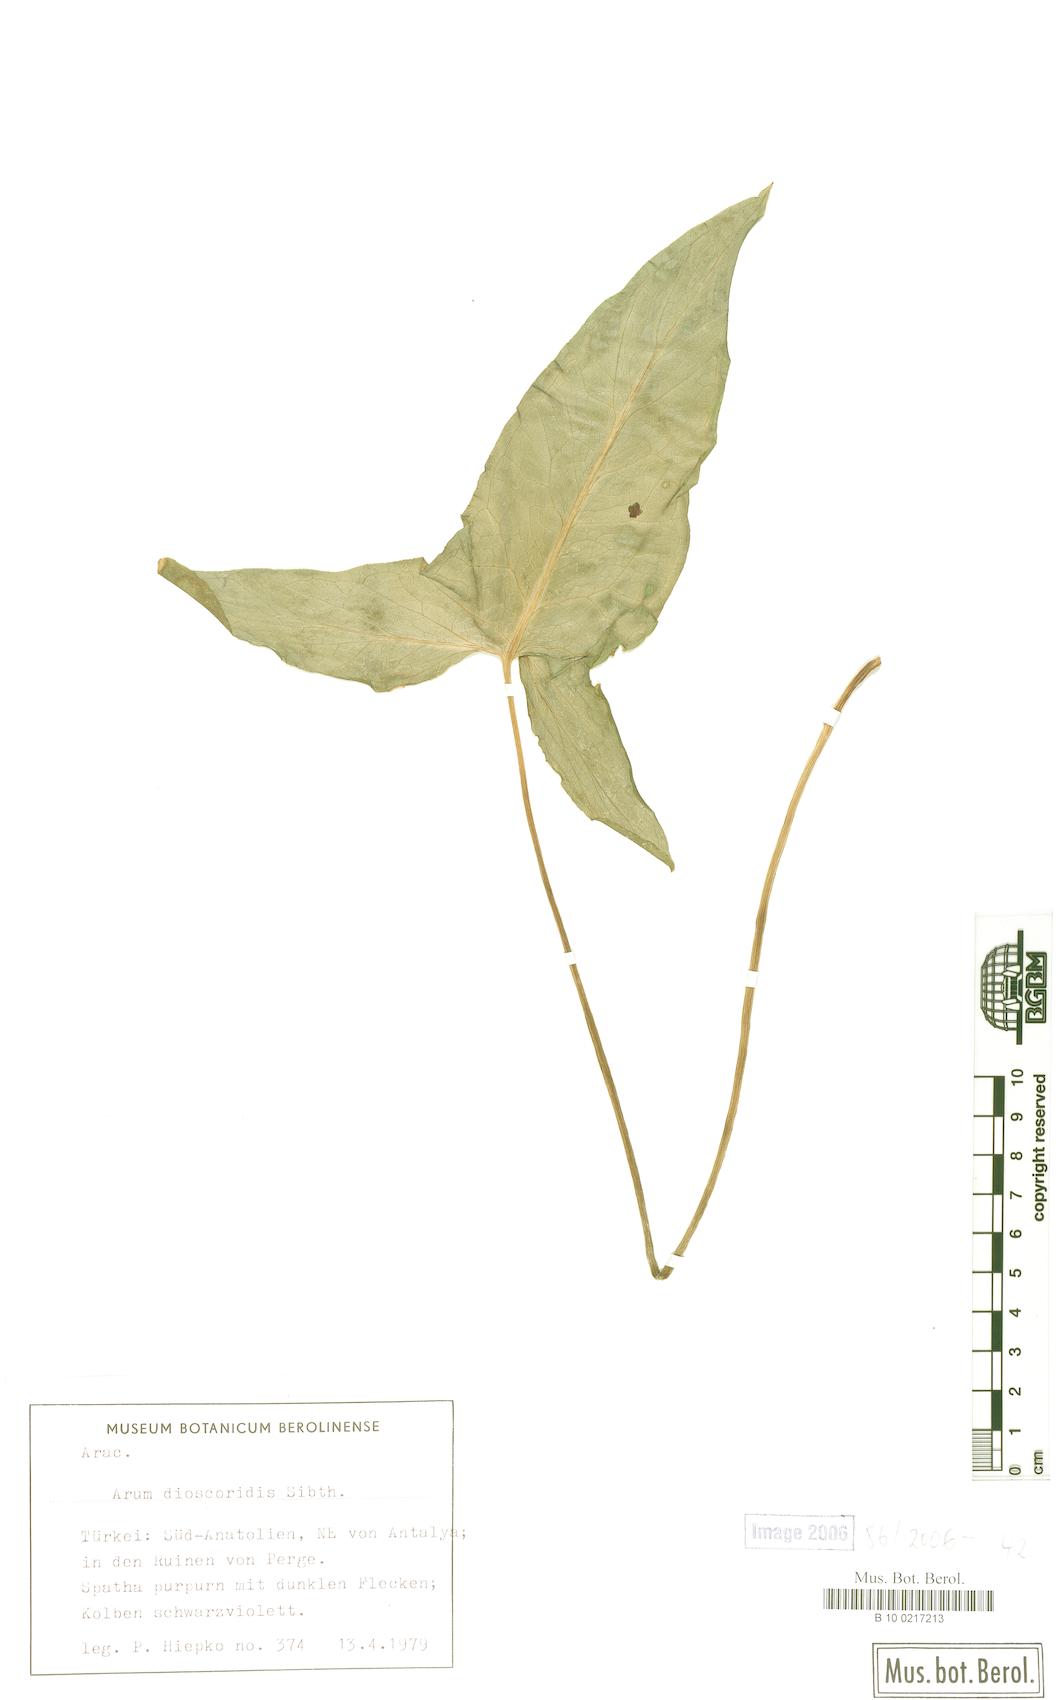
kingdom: Plantae
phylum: Tracheophyta
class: Liliopsida
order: Alismatales
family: Araceae
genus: Arum
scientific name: Arum dioscoridis
